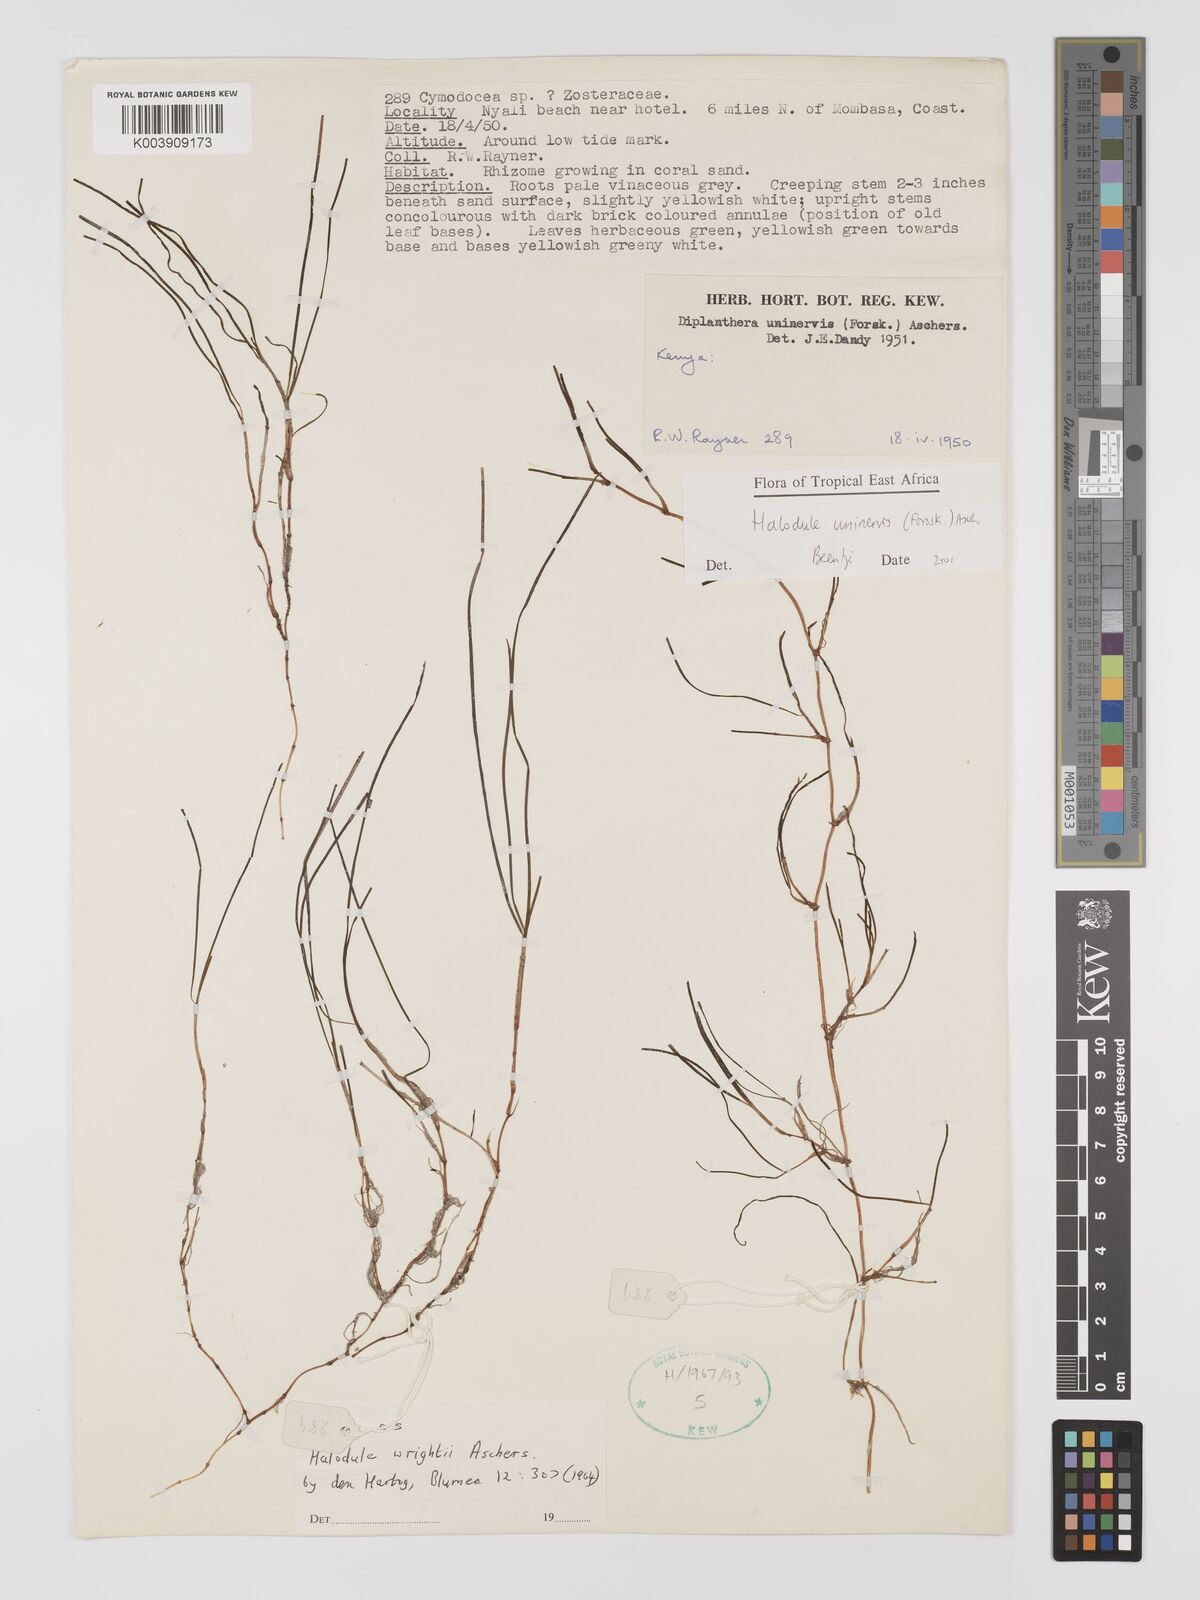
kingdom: Plantae
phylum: Tracheophyta
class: Liliopsida
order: Alismatales
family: Cymodoceaceae
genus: Halodule
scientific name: Halodule uninervis
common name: Narrowleaf seagrass
